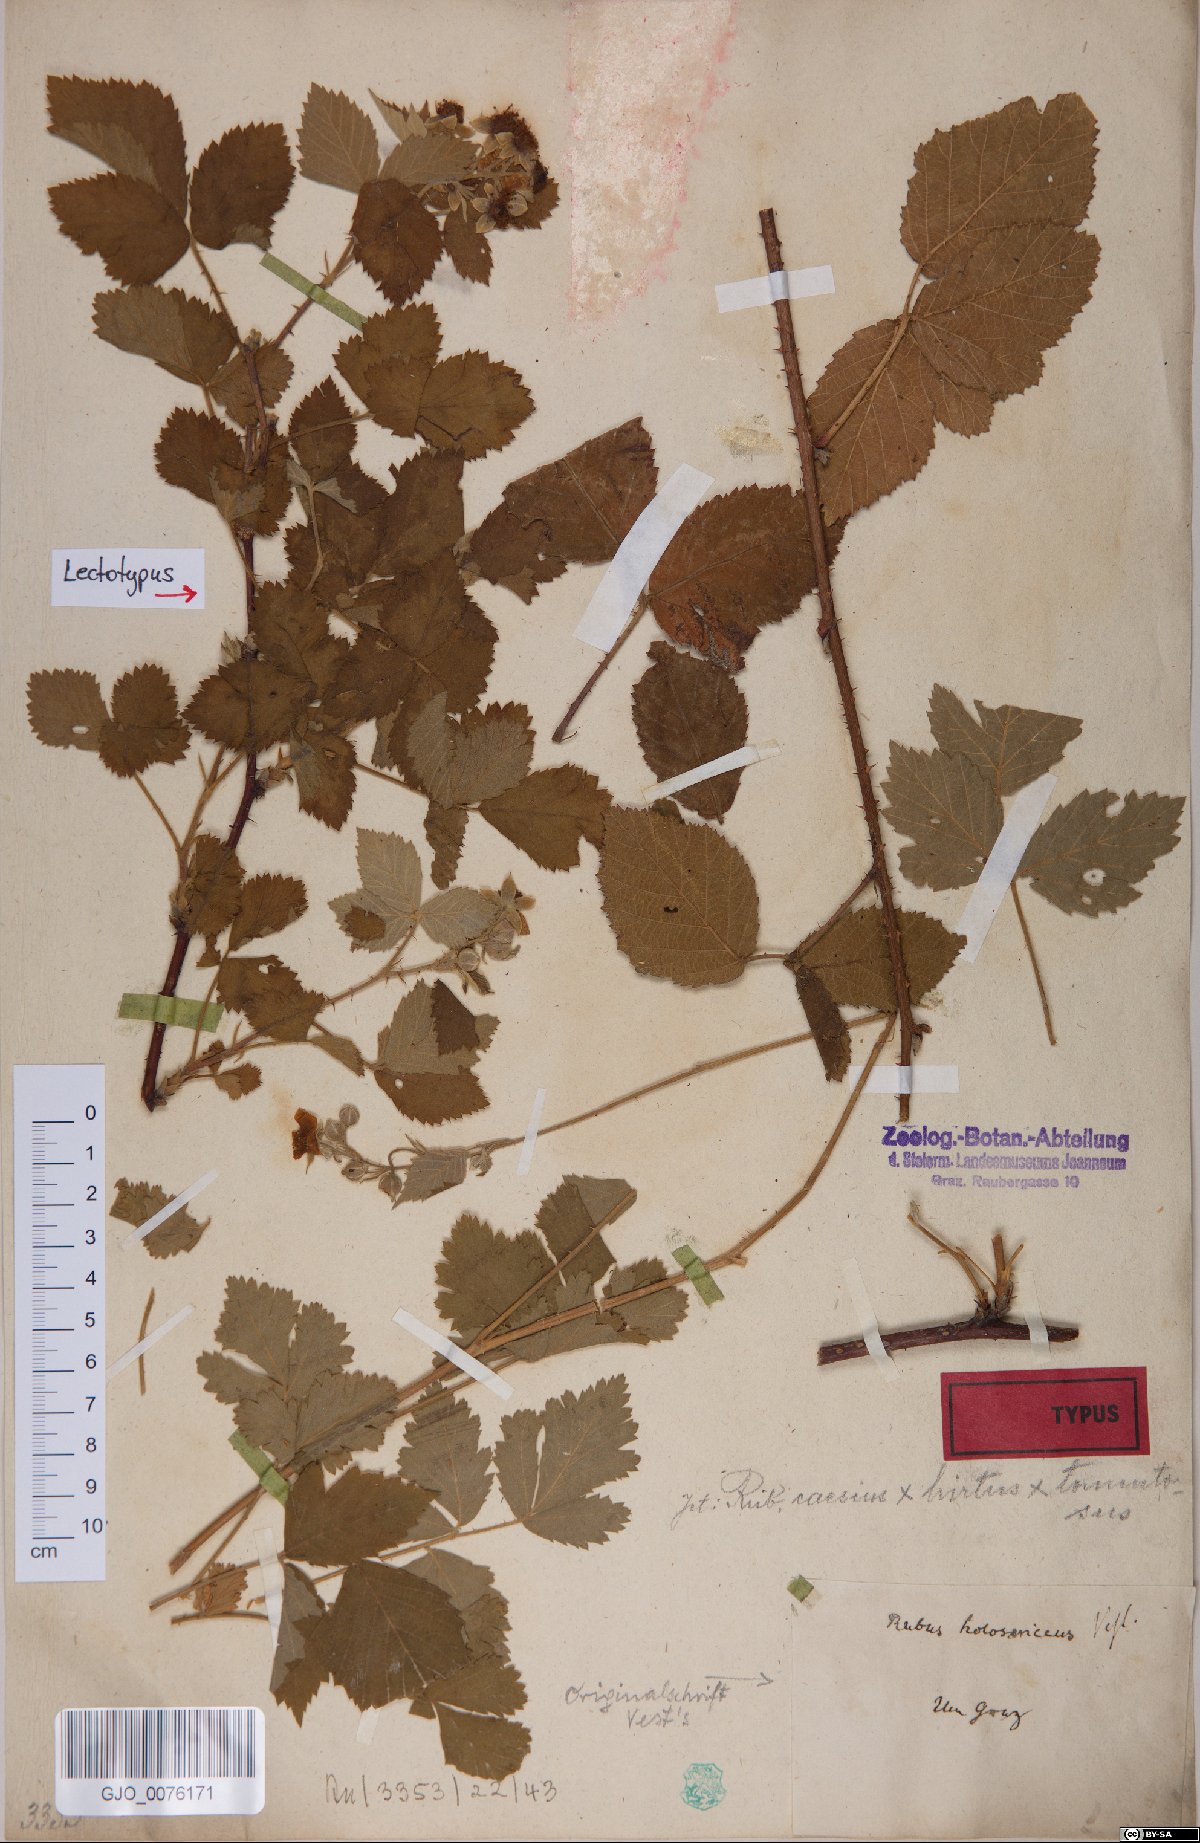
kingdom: Plantae
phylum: Tracheophyta
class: Magnoliopsida
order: Rosales
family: Rosaceae
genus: Rubus
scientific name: Rubus holosericeus
